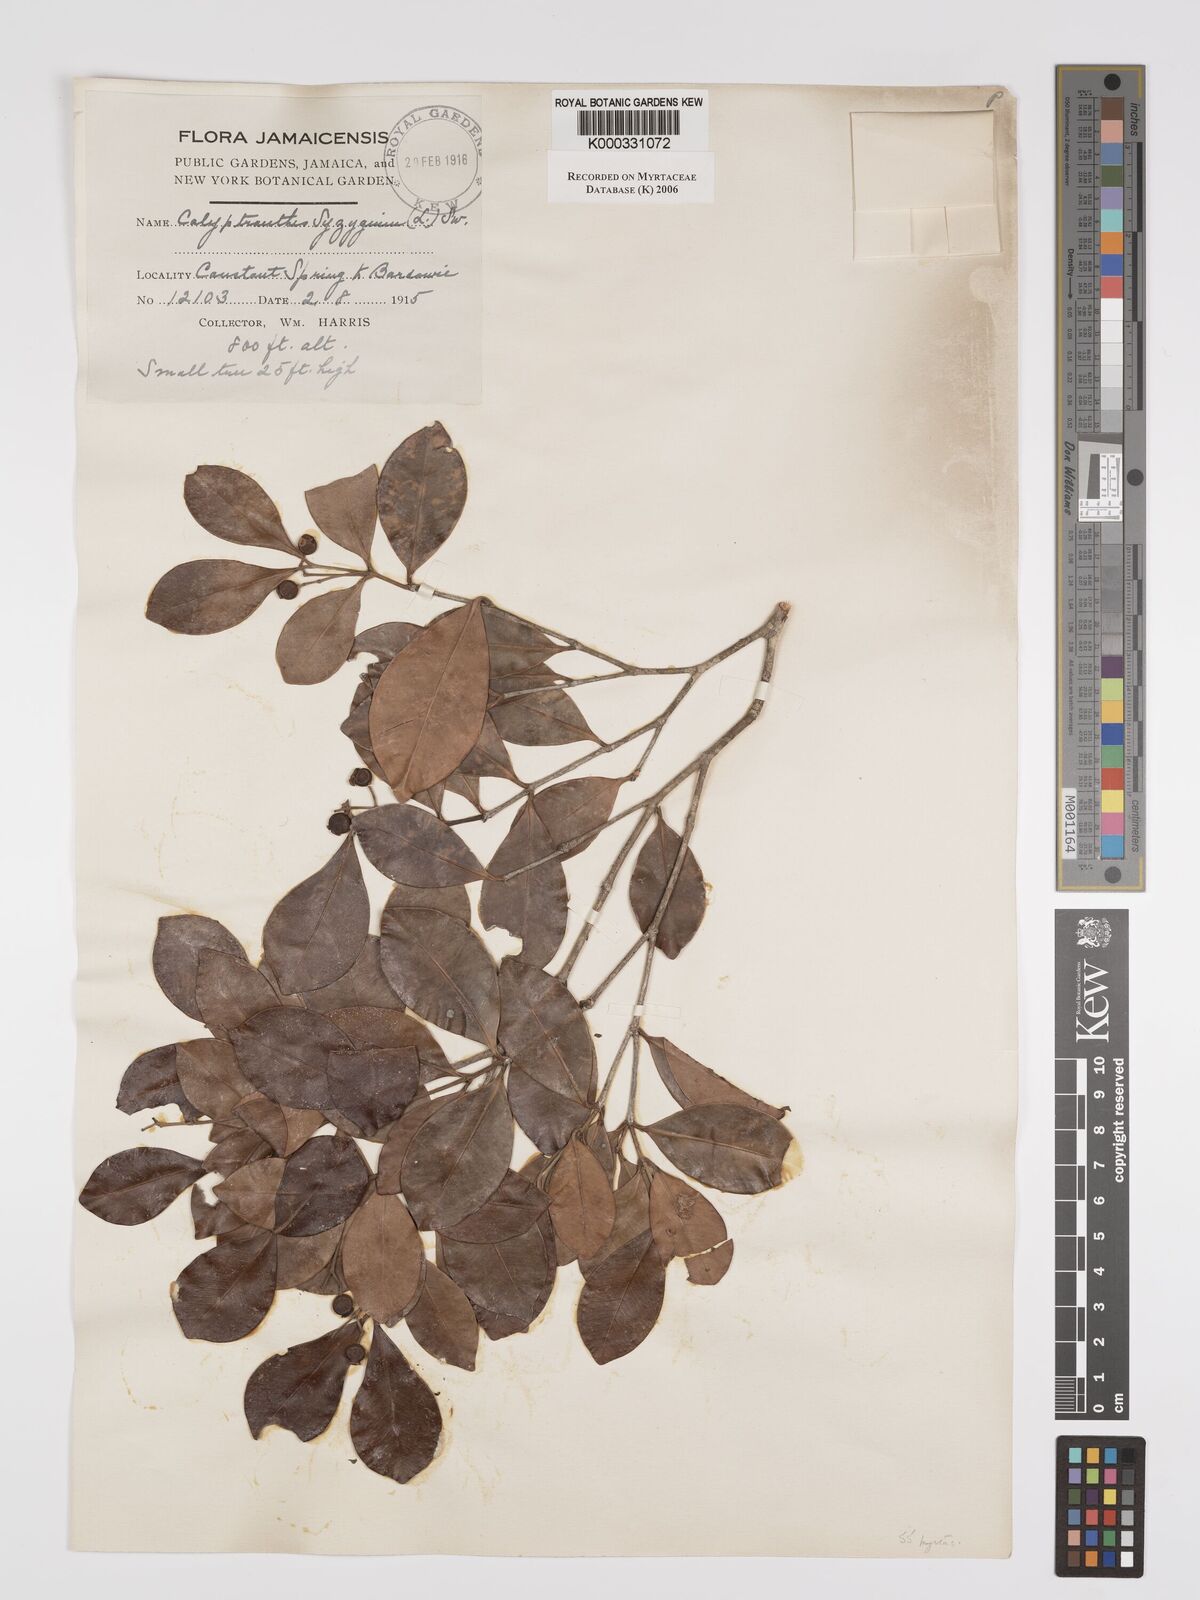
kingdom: Plantae
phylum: Tracheophyta
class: Magnoliopsida
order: Myrtales
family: Myrtaceae
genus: Myrcia
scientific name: Myrcia chytraculia
